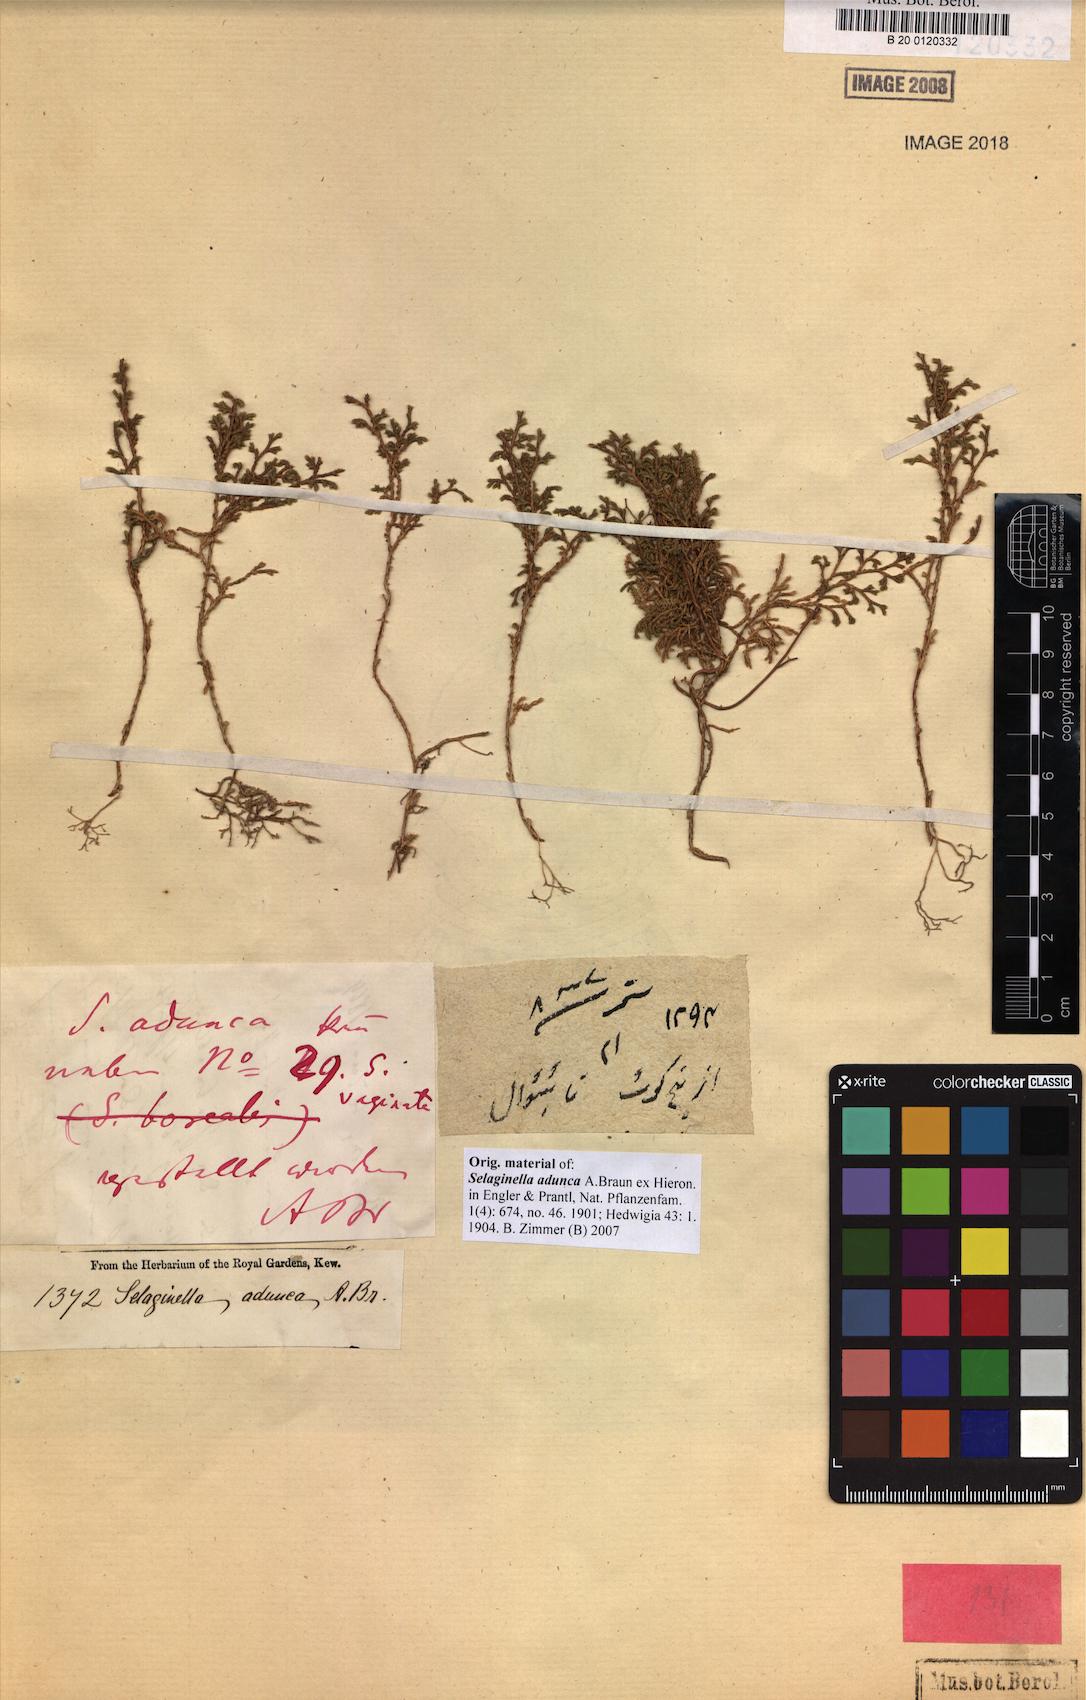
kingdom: Plantae
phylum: Tracheophyta
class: Lycopodiopsida
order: Selaginellales
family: Selaginellaceae
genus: Selaginella
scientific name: Selaginella adunca
